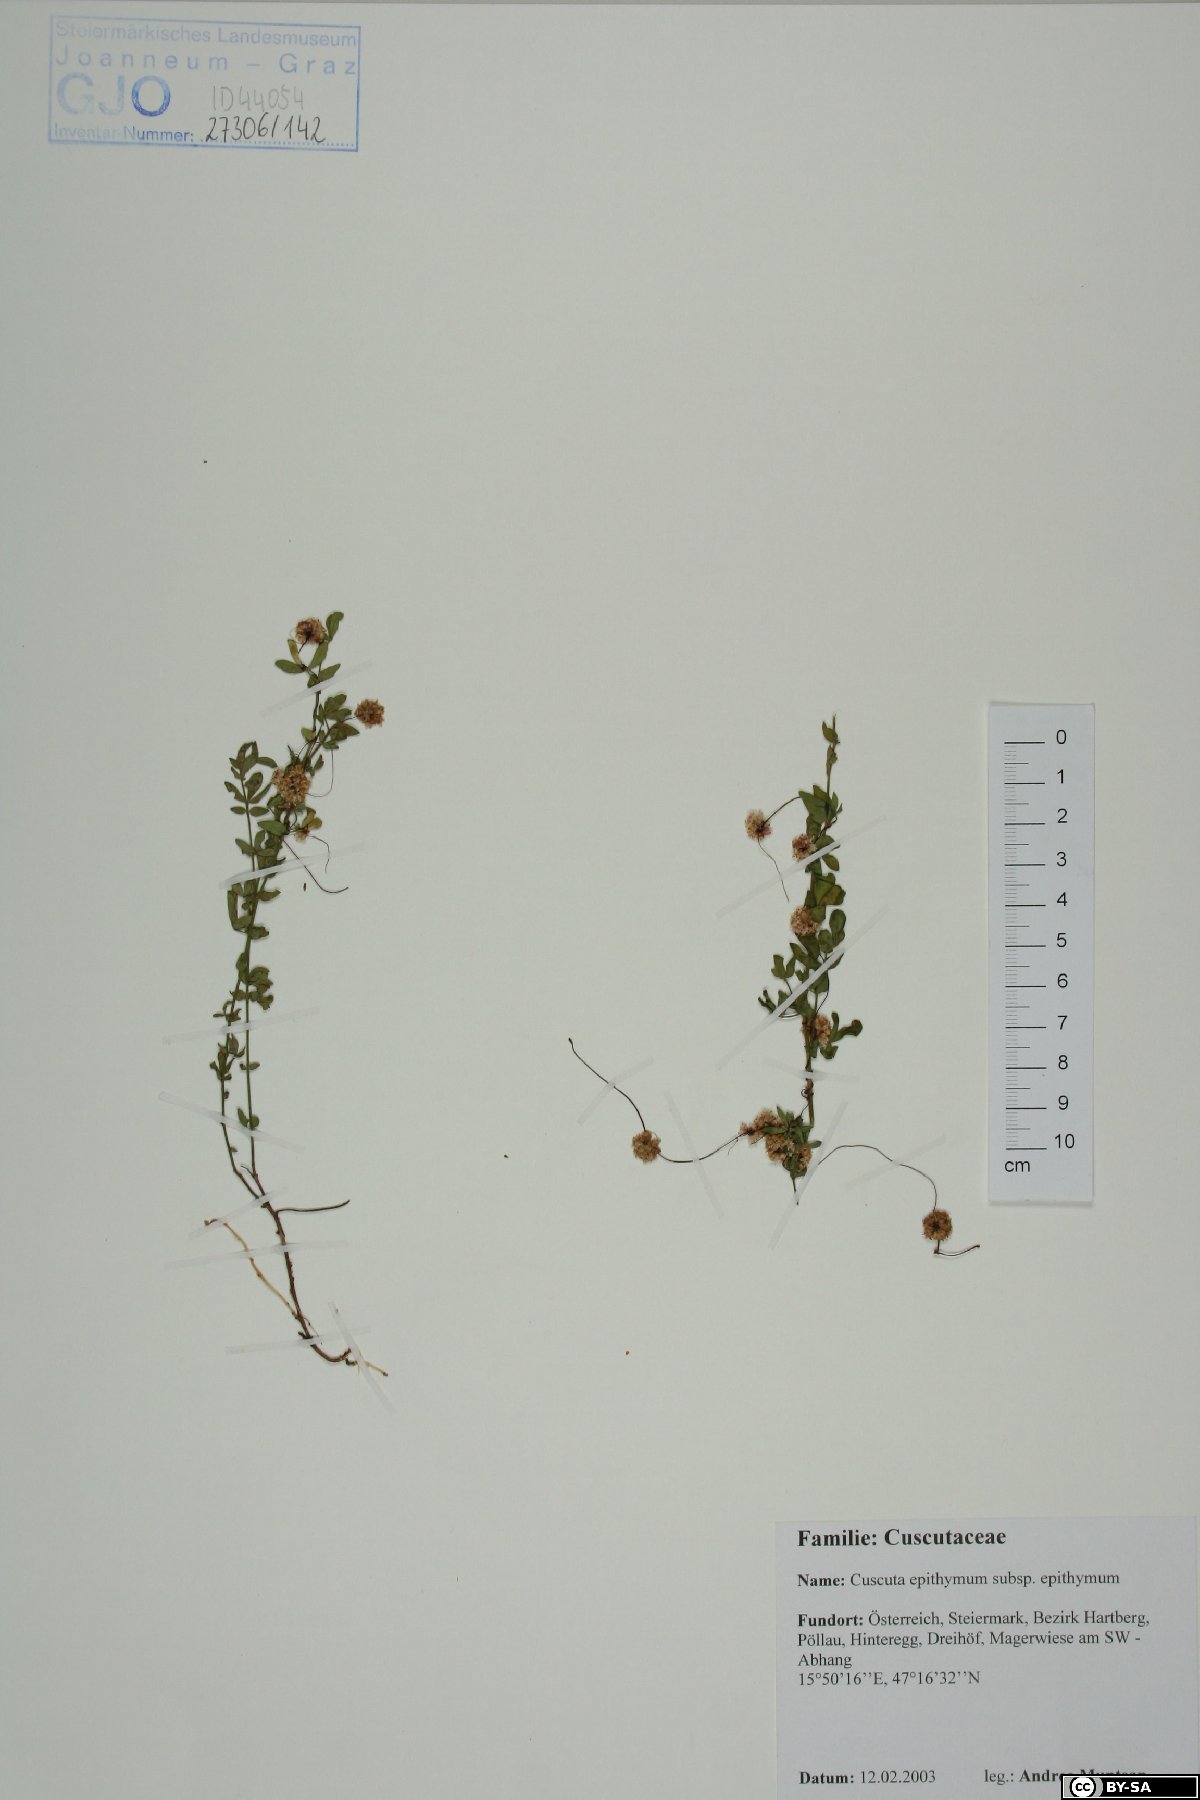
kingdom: Plantae
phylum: Tracheophyta
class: Magnoliopsida
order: Solanales
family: Convolvulaceae
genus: Cuscuta
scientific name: Cuscuta epithymum
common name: Clover dodder
